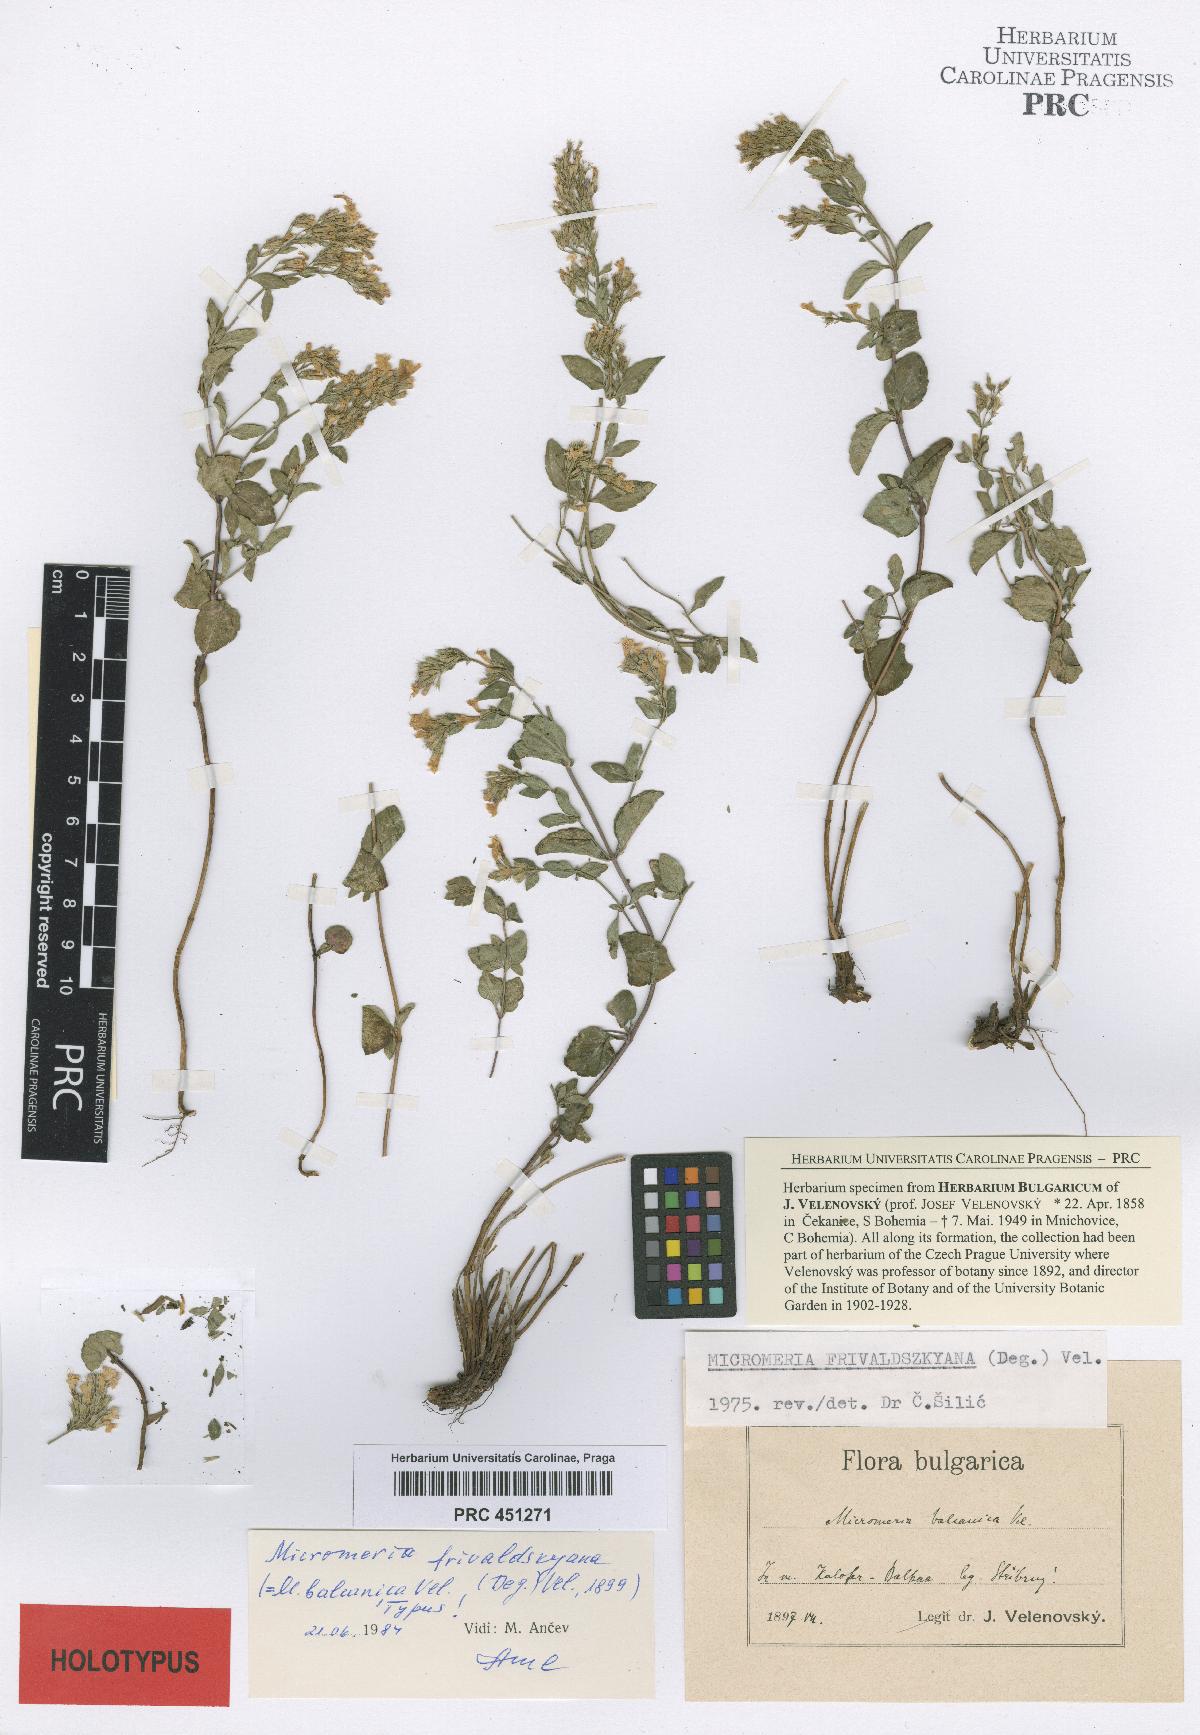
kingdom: Plantae
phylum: Tracheophyta
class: Magnoliopsida
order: Lamiales
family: Lamiaceae
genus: Clinopodium
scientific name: Clinopodium frivaldszkyanum
